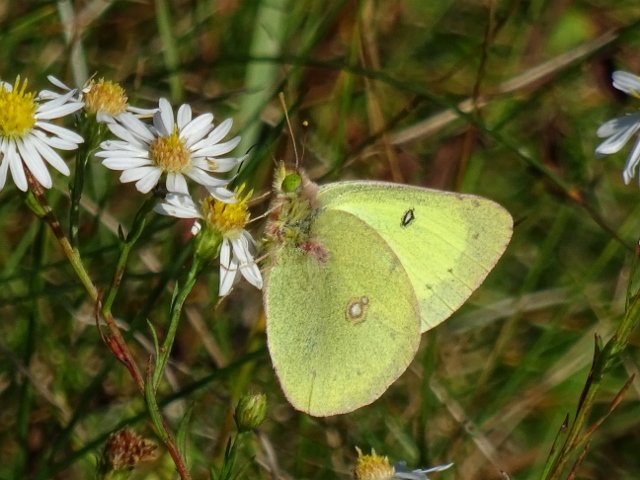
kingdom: Animalia
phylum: Arthropoda
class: Insecta
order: Lepidoptera
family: Pieridae
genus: Colias
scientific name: Colias philodice
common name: Clouded Sulphur
